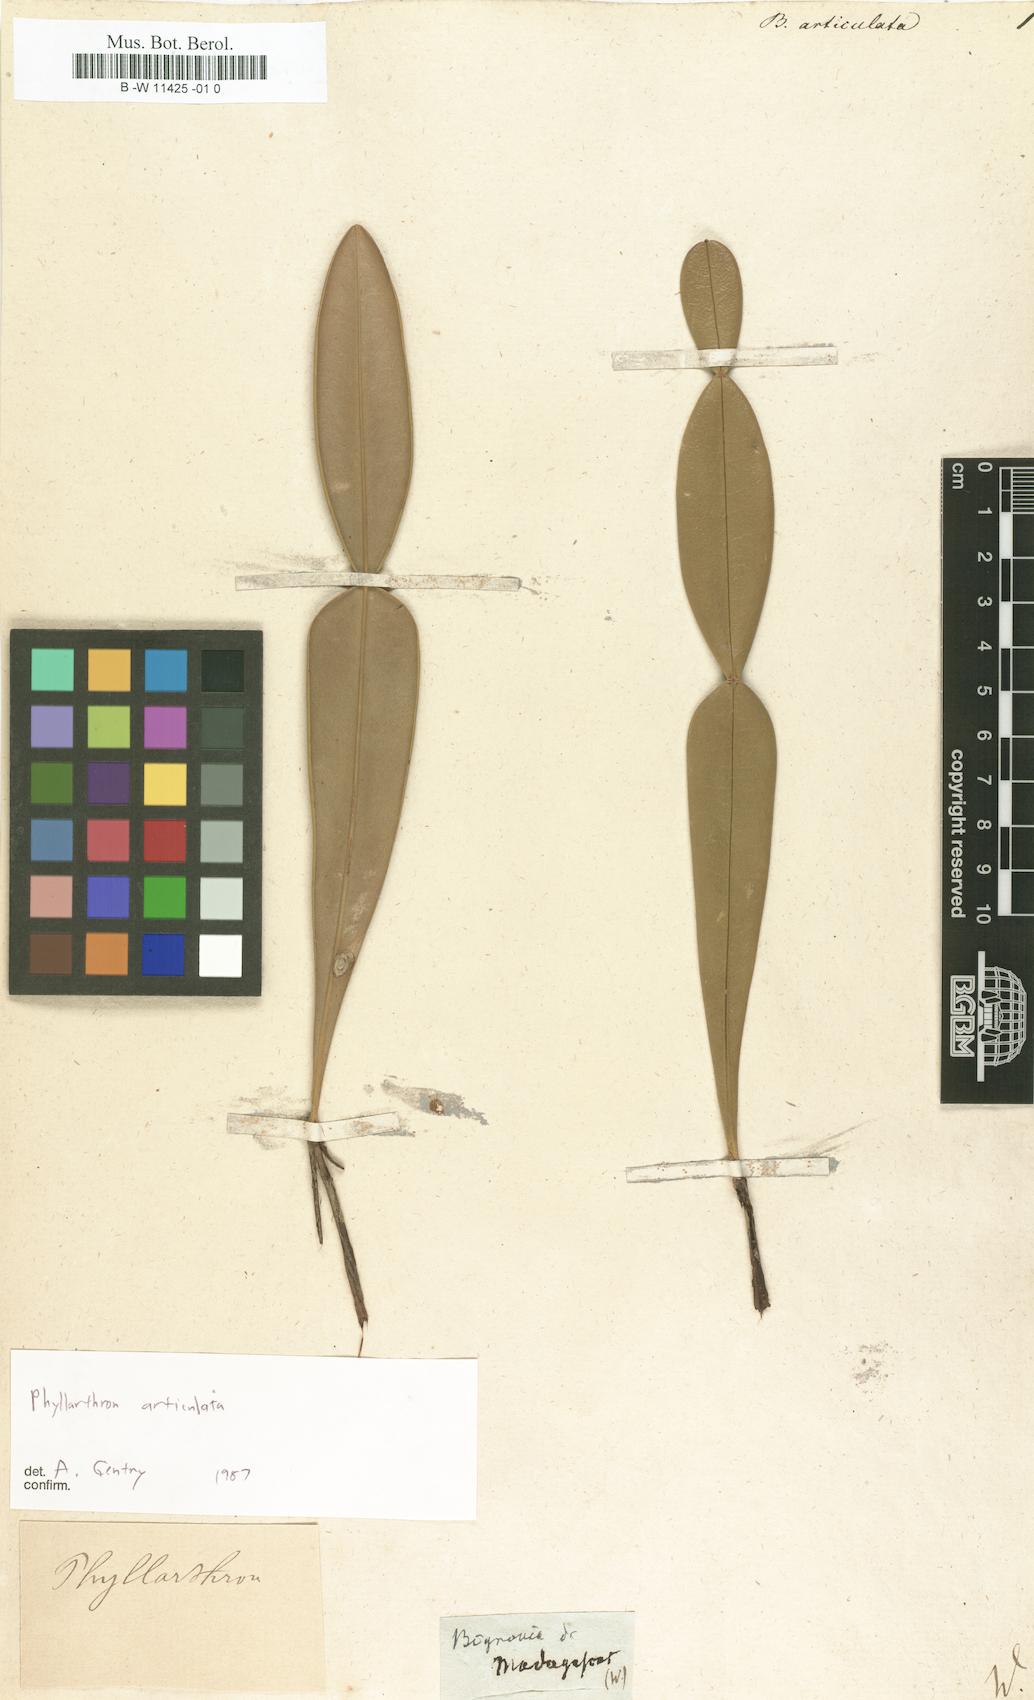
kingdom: Plantae
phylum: Tracheophyta
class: Magnoliopsida
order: Lamiales
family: Bignoniaceae
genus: Phyllarthron
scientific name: Phyllarthron articulatum
